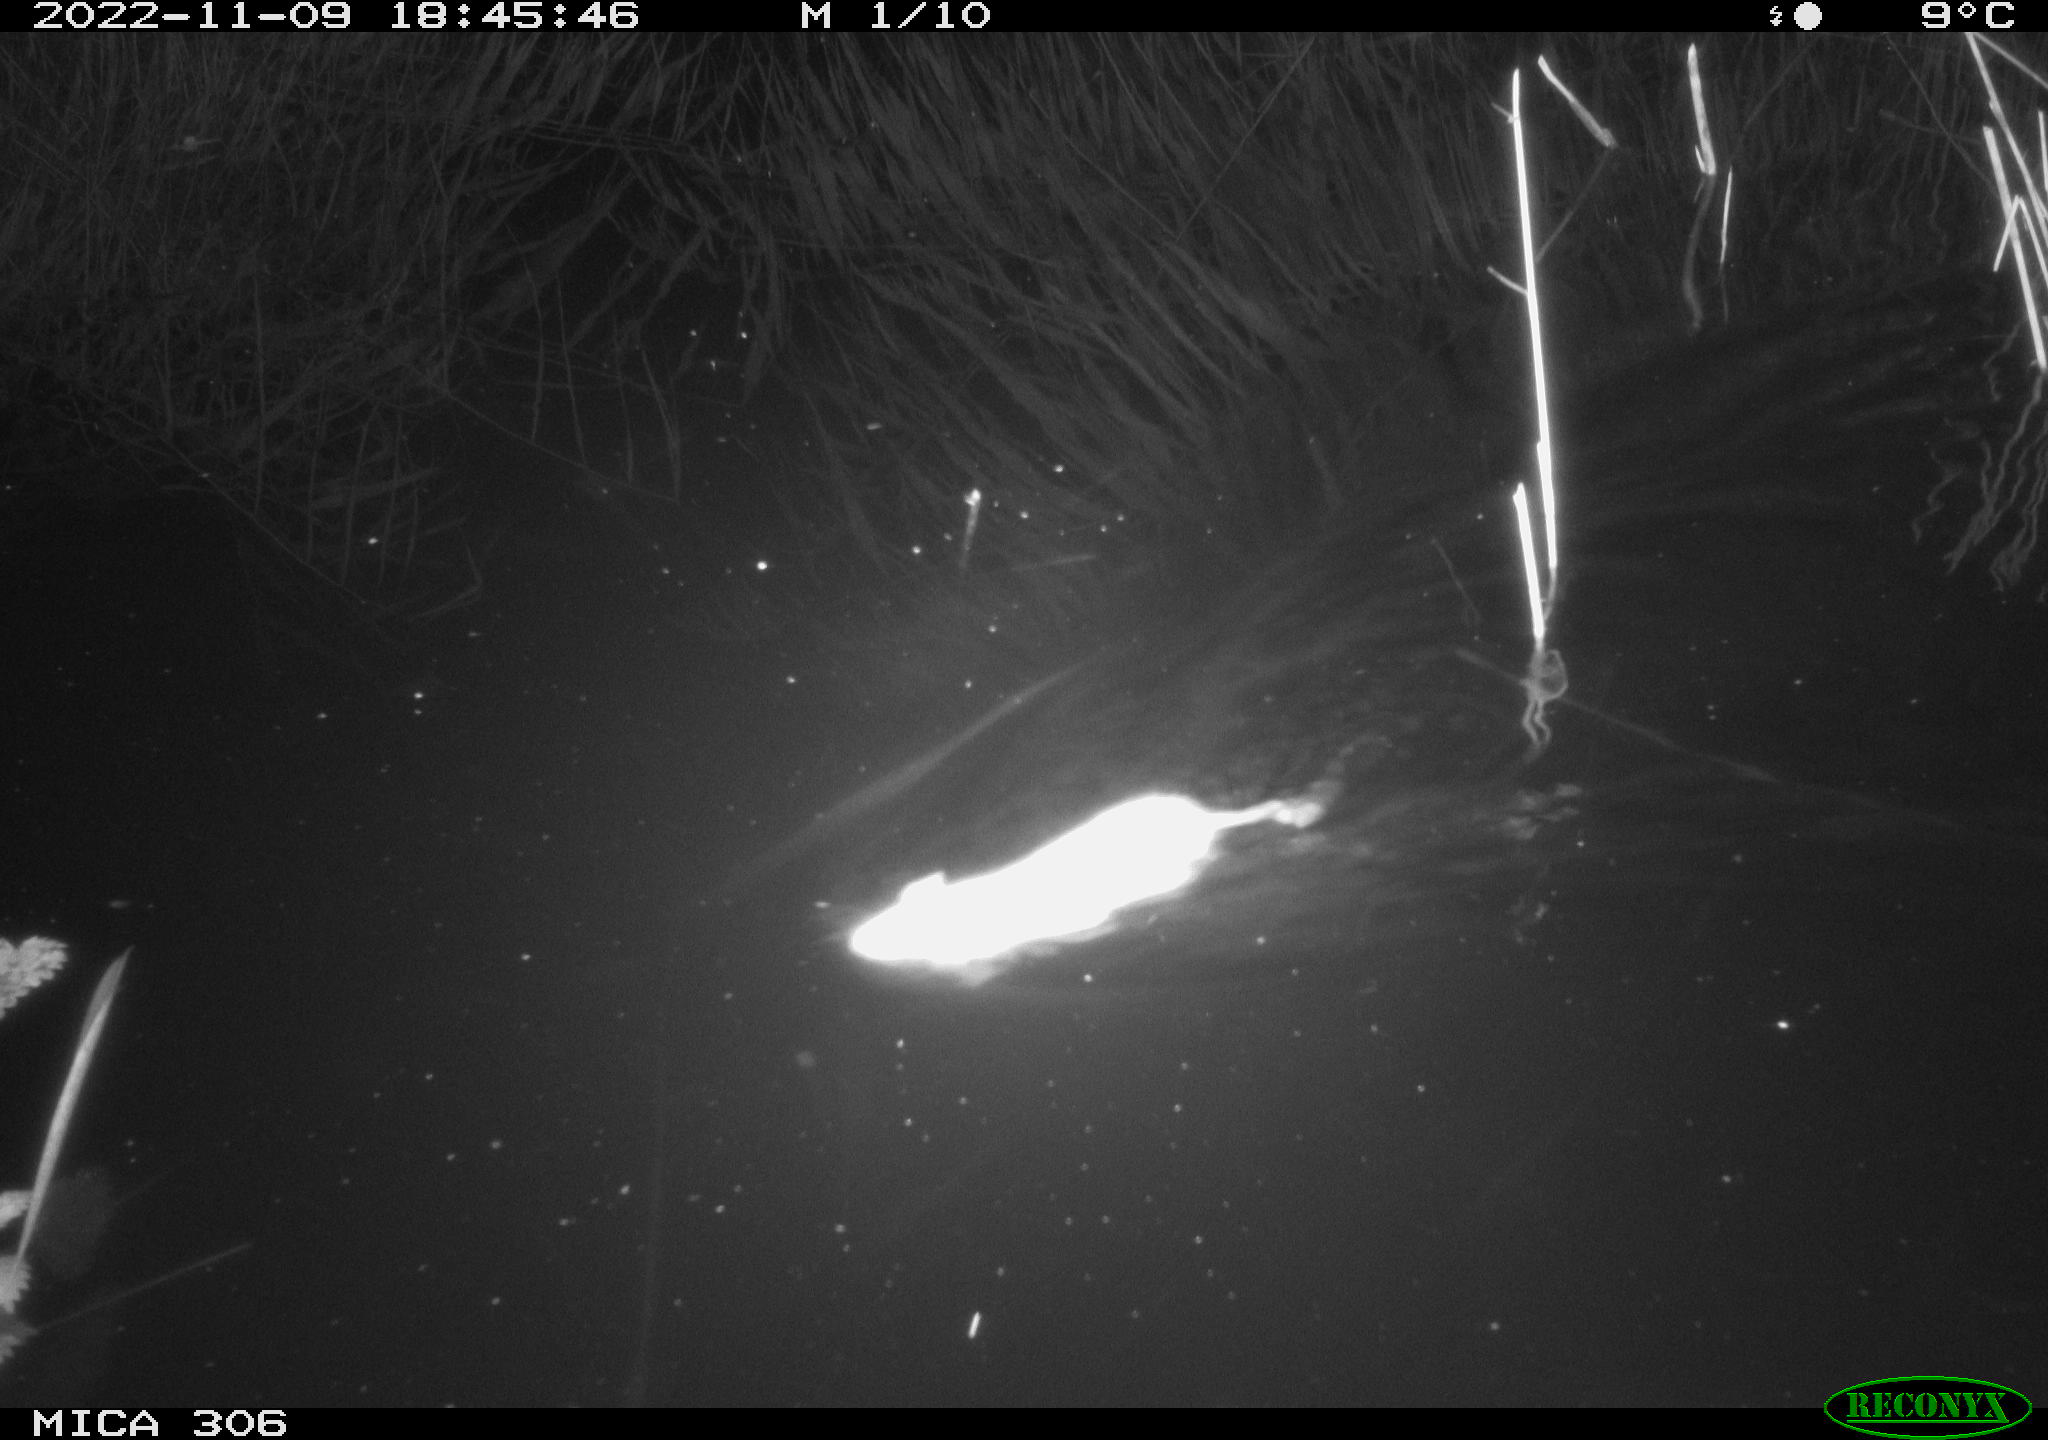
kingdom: Animalia
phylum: Chordata
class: Mammalia
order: Rodentia
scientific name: Rodentia
